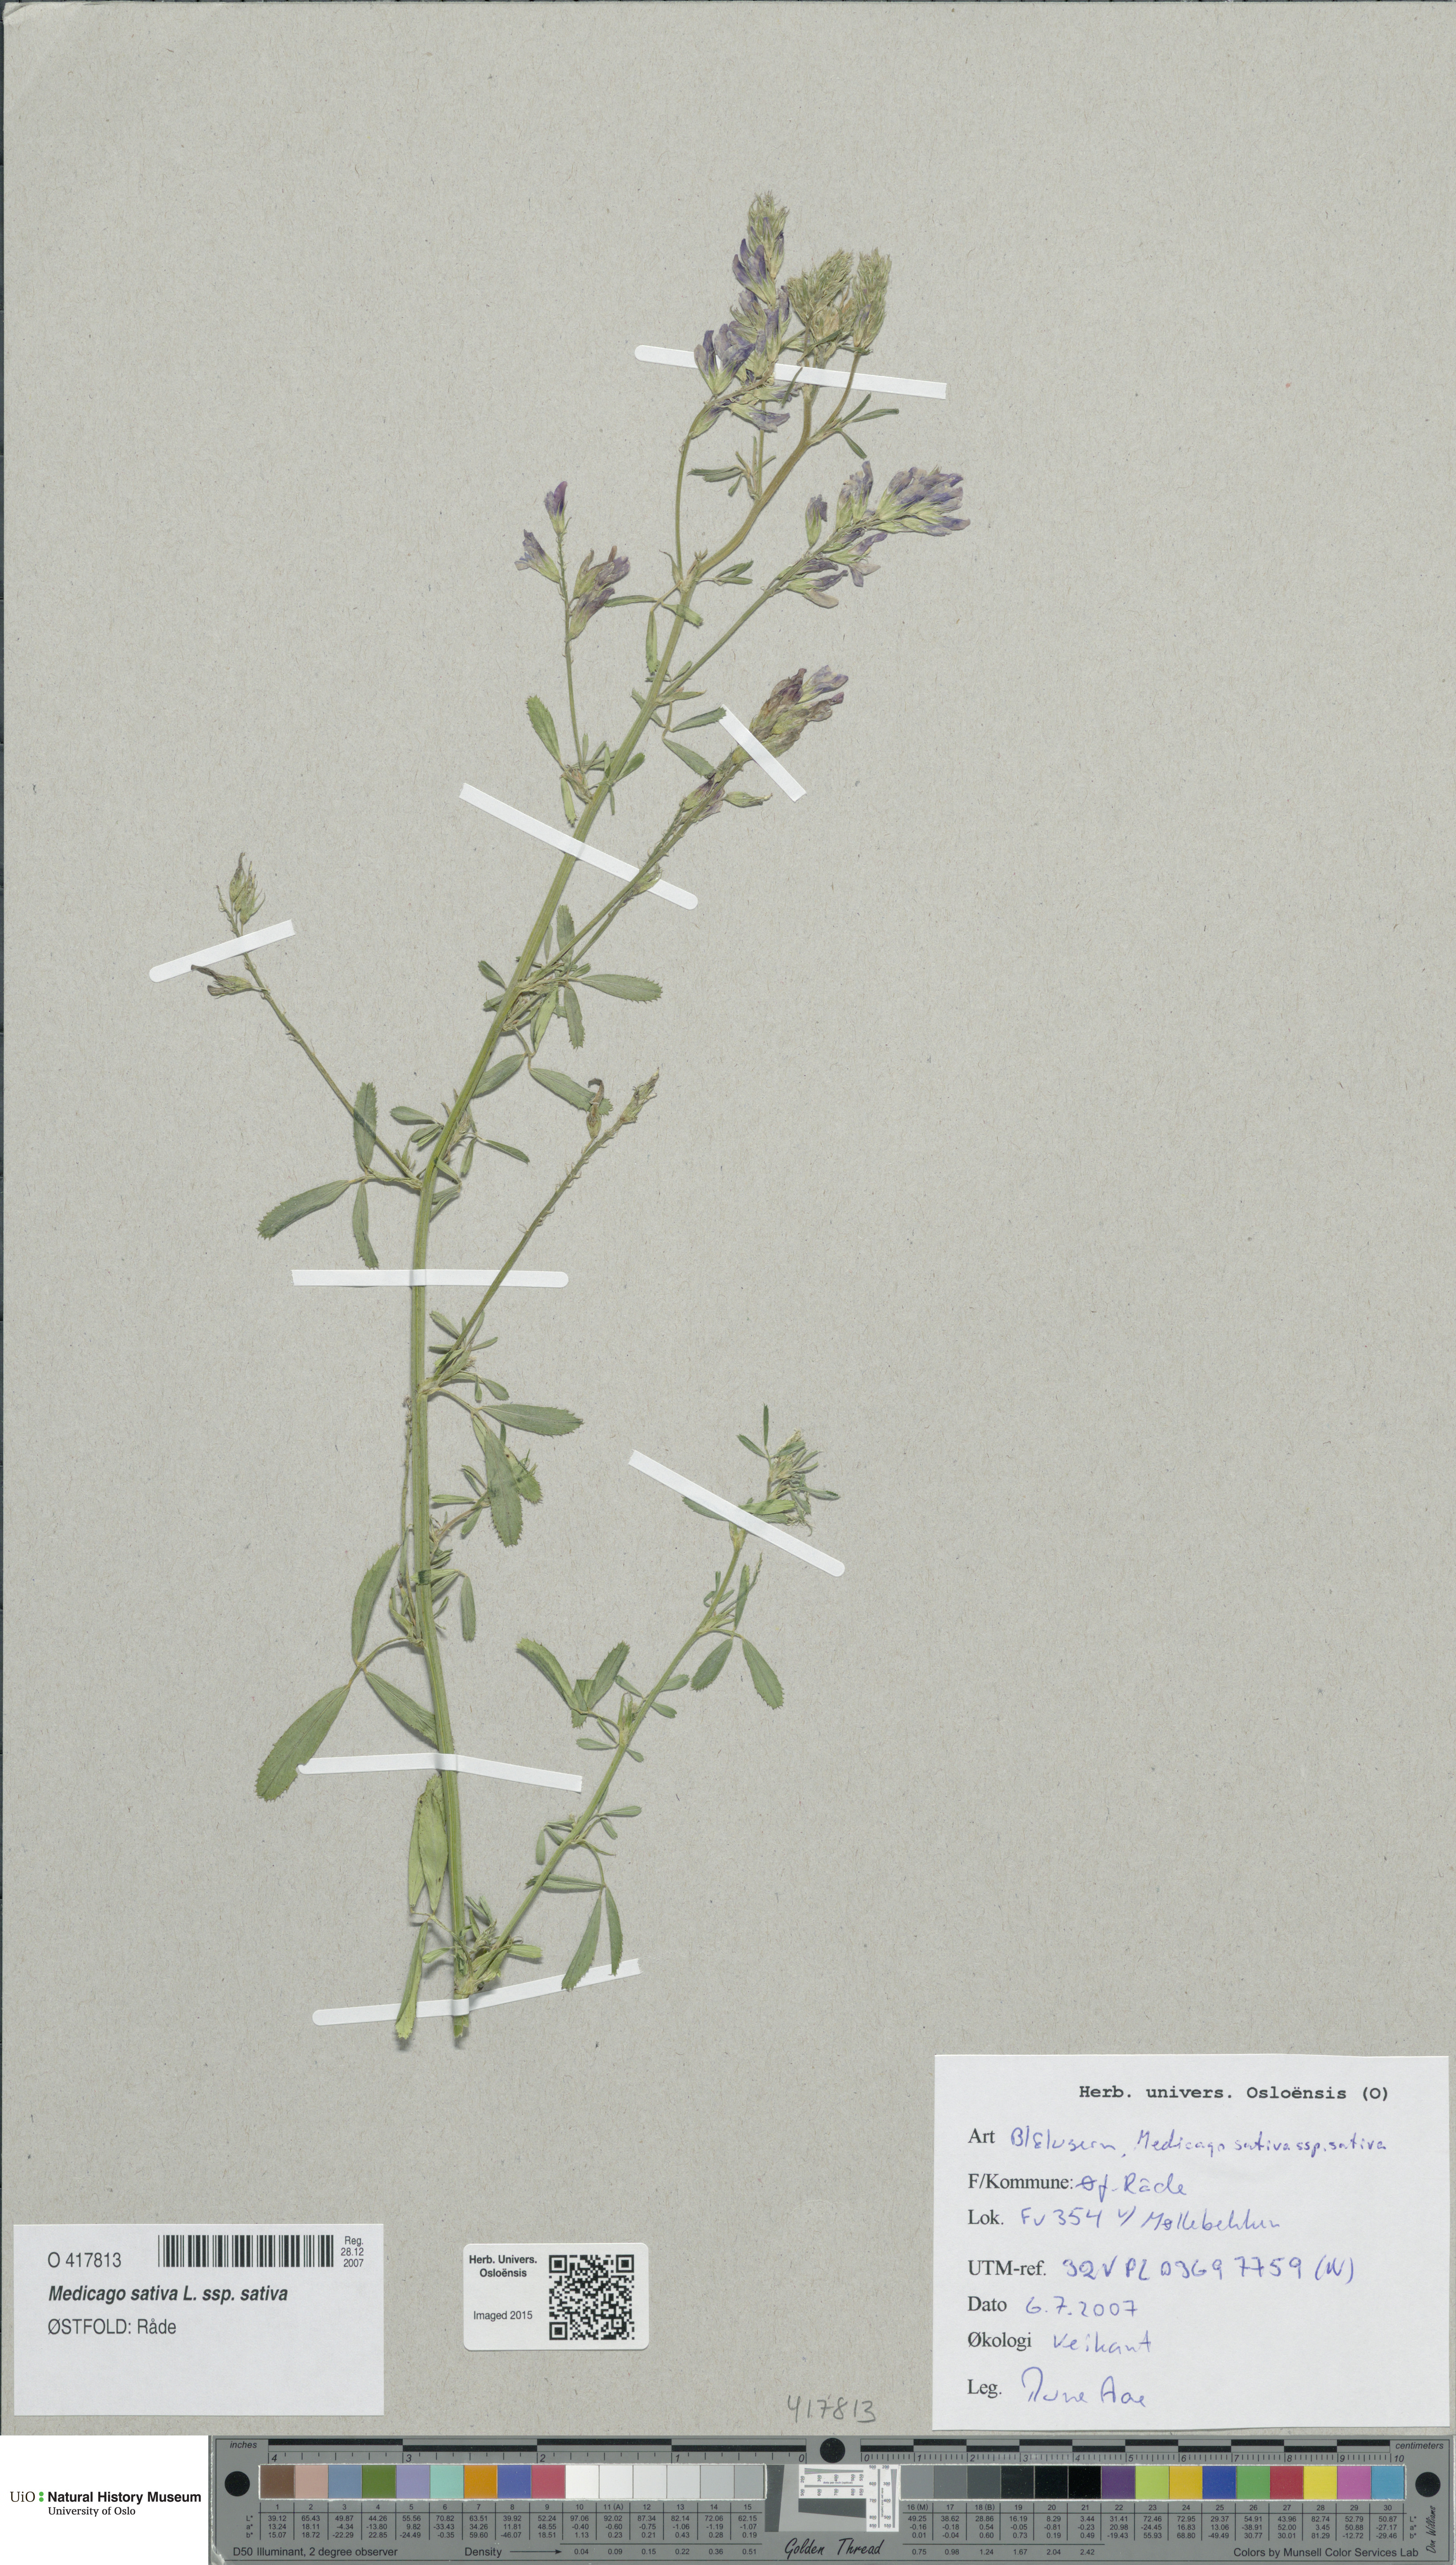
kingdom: Plantae
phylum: Tracheophyta
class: Magnoliopsida
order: Fabales
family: Fabaceae
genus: Medicago
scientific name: Medicago sativa
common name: Alfalfa
